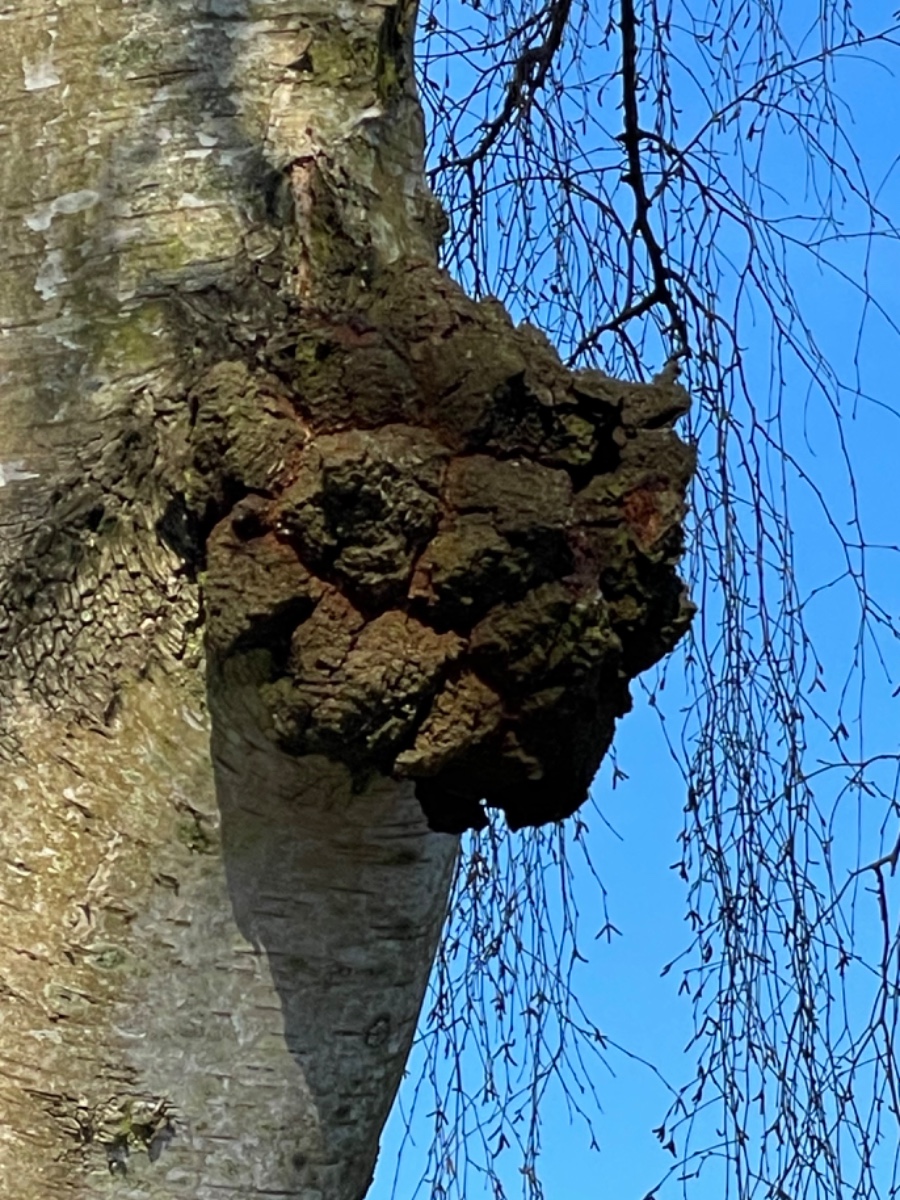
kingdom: Fungi
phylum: Basidiomycota
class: Agaricomycetes
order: Hymenochaetales
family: Hymenochaetaceae
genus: Inonotus
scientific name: Inonotus obliquus
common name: birke-spejlporesvamp
